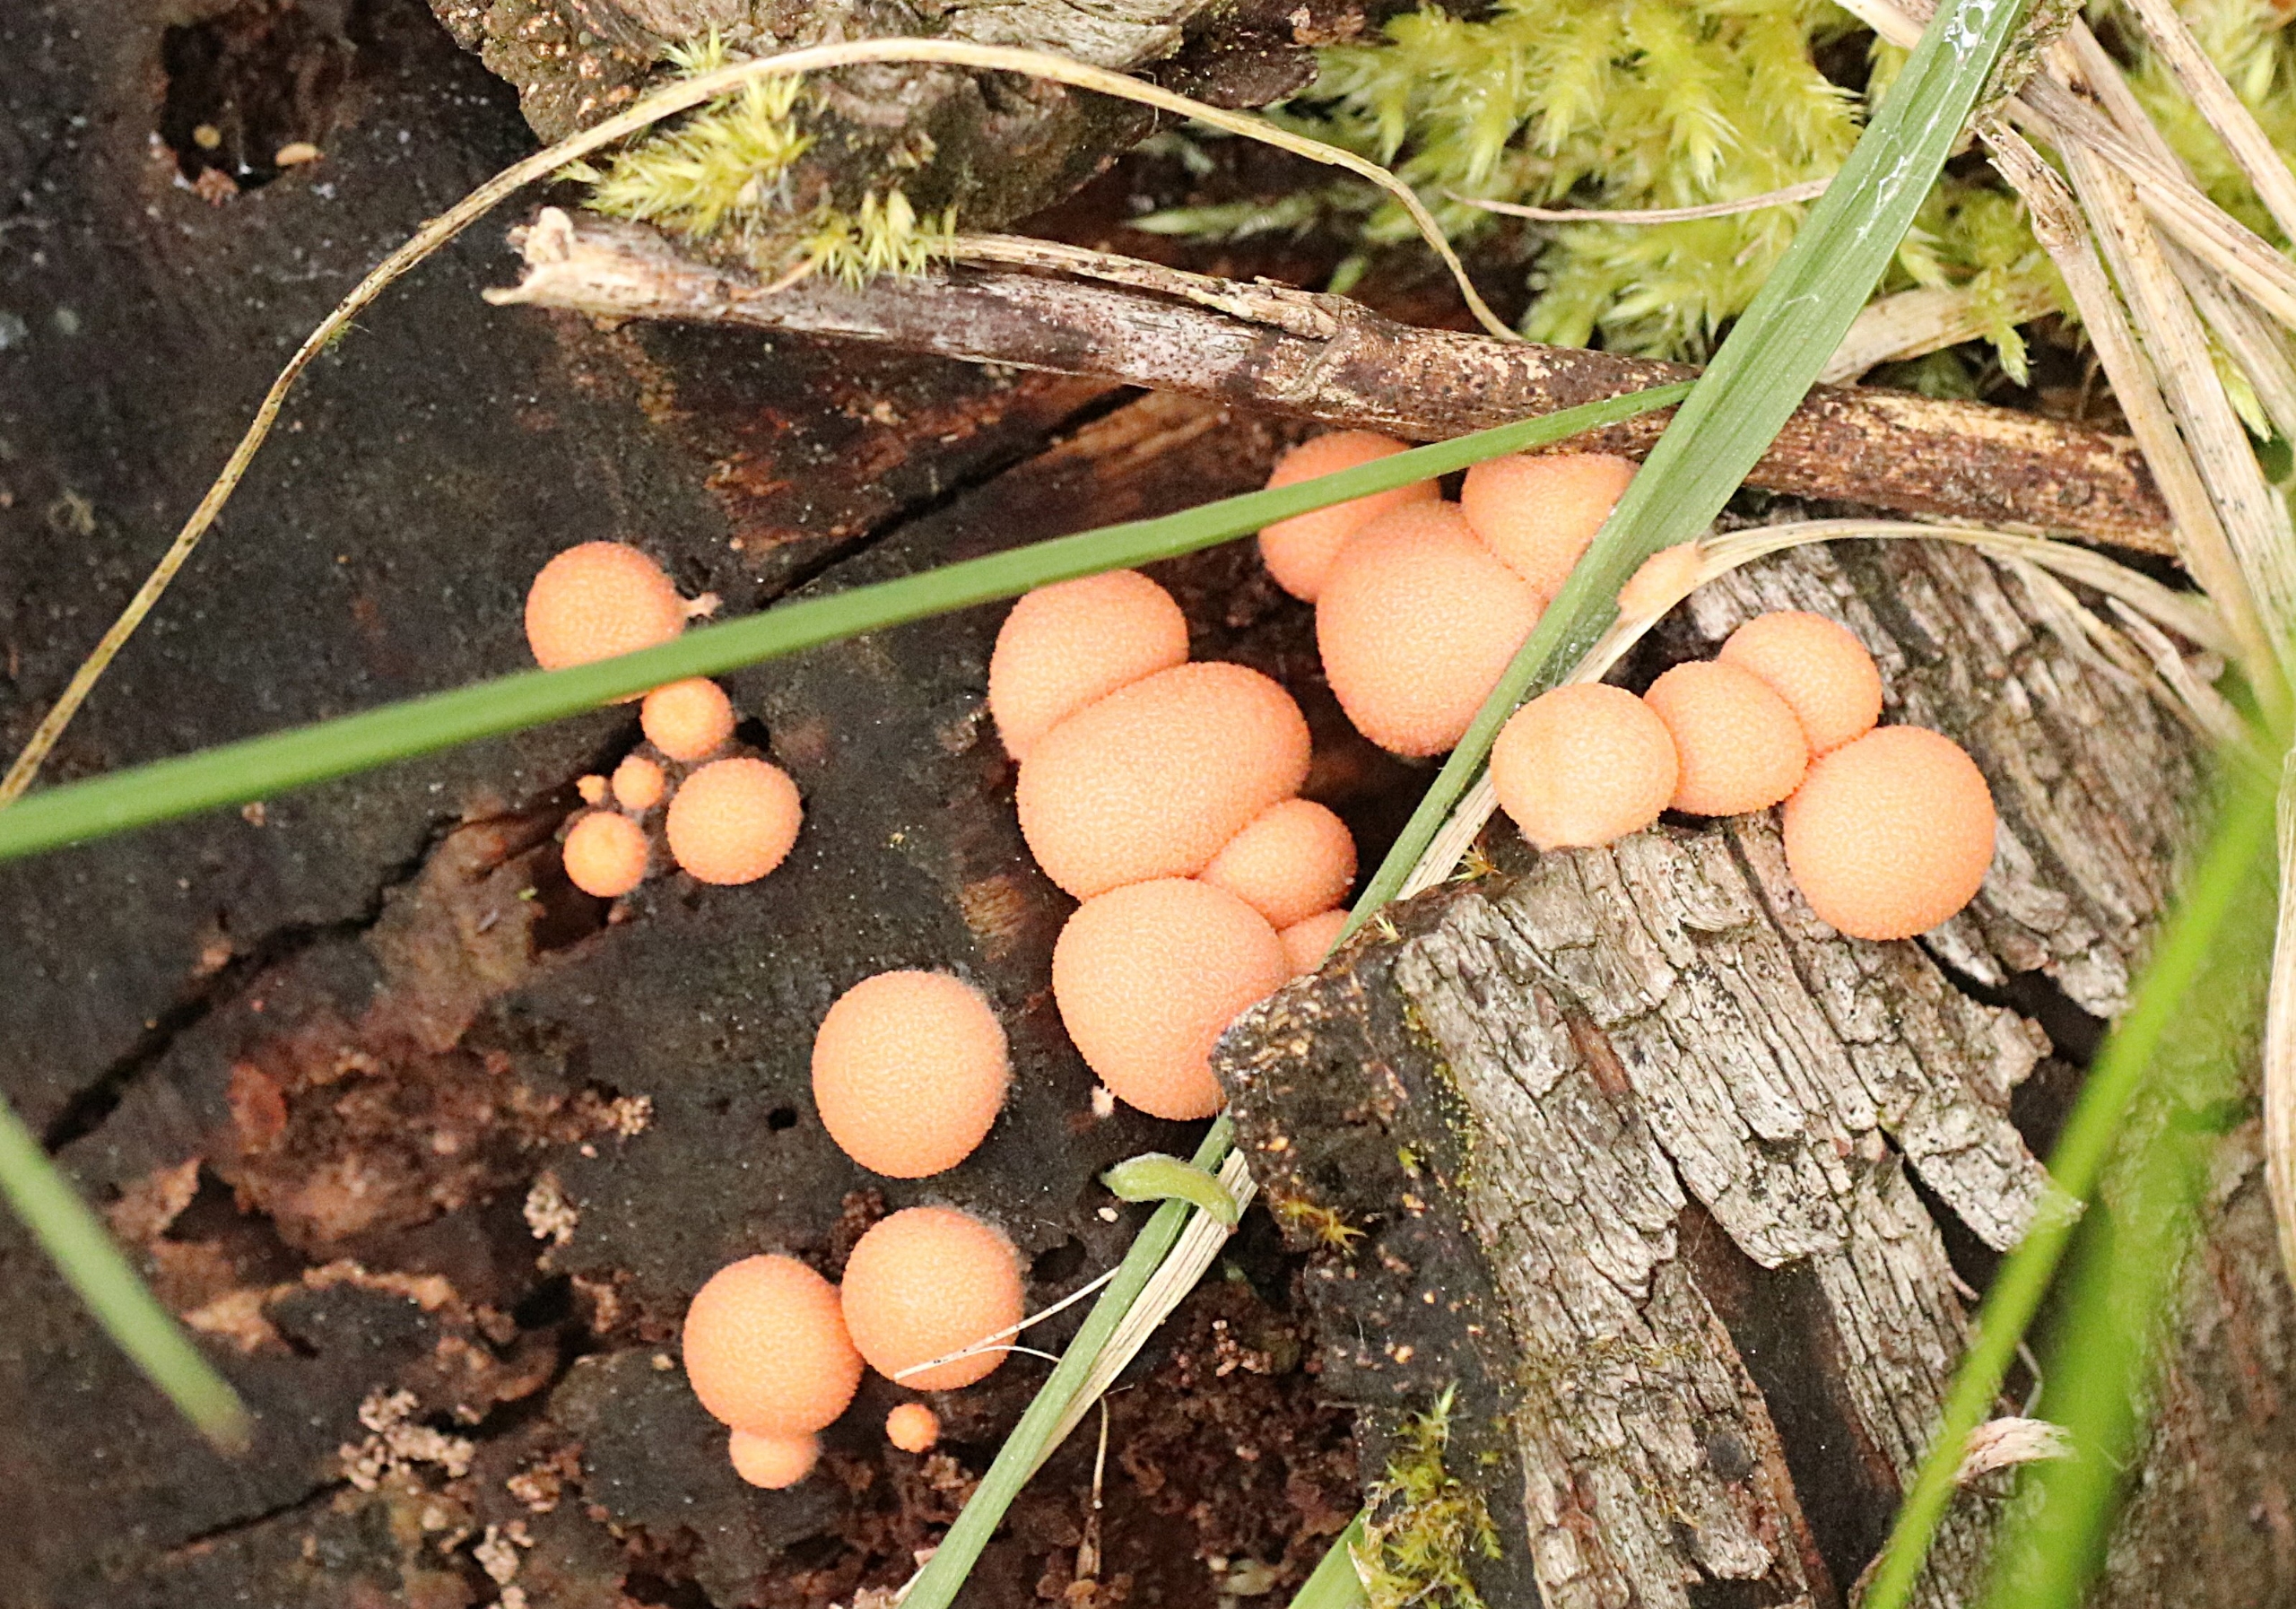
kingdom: Protozoa
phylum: Mycetozoa
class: Myxomycetes
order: Cribrariales
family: Tubiferaceae
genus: Lycogala
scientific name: Lycogala epidendrum
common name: Almindelig rødært
